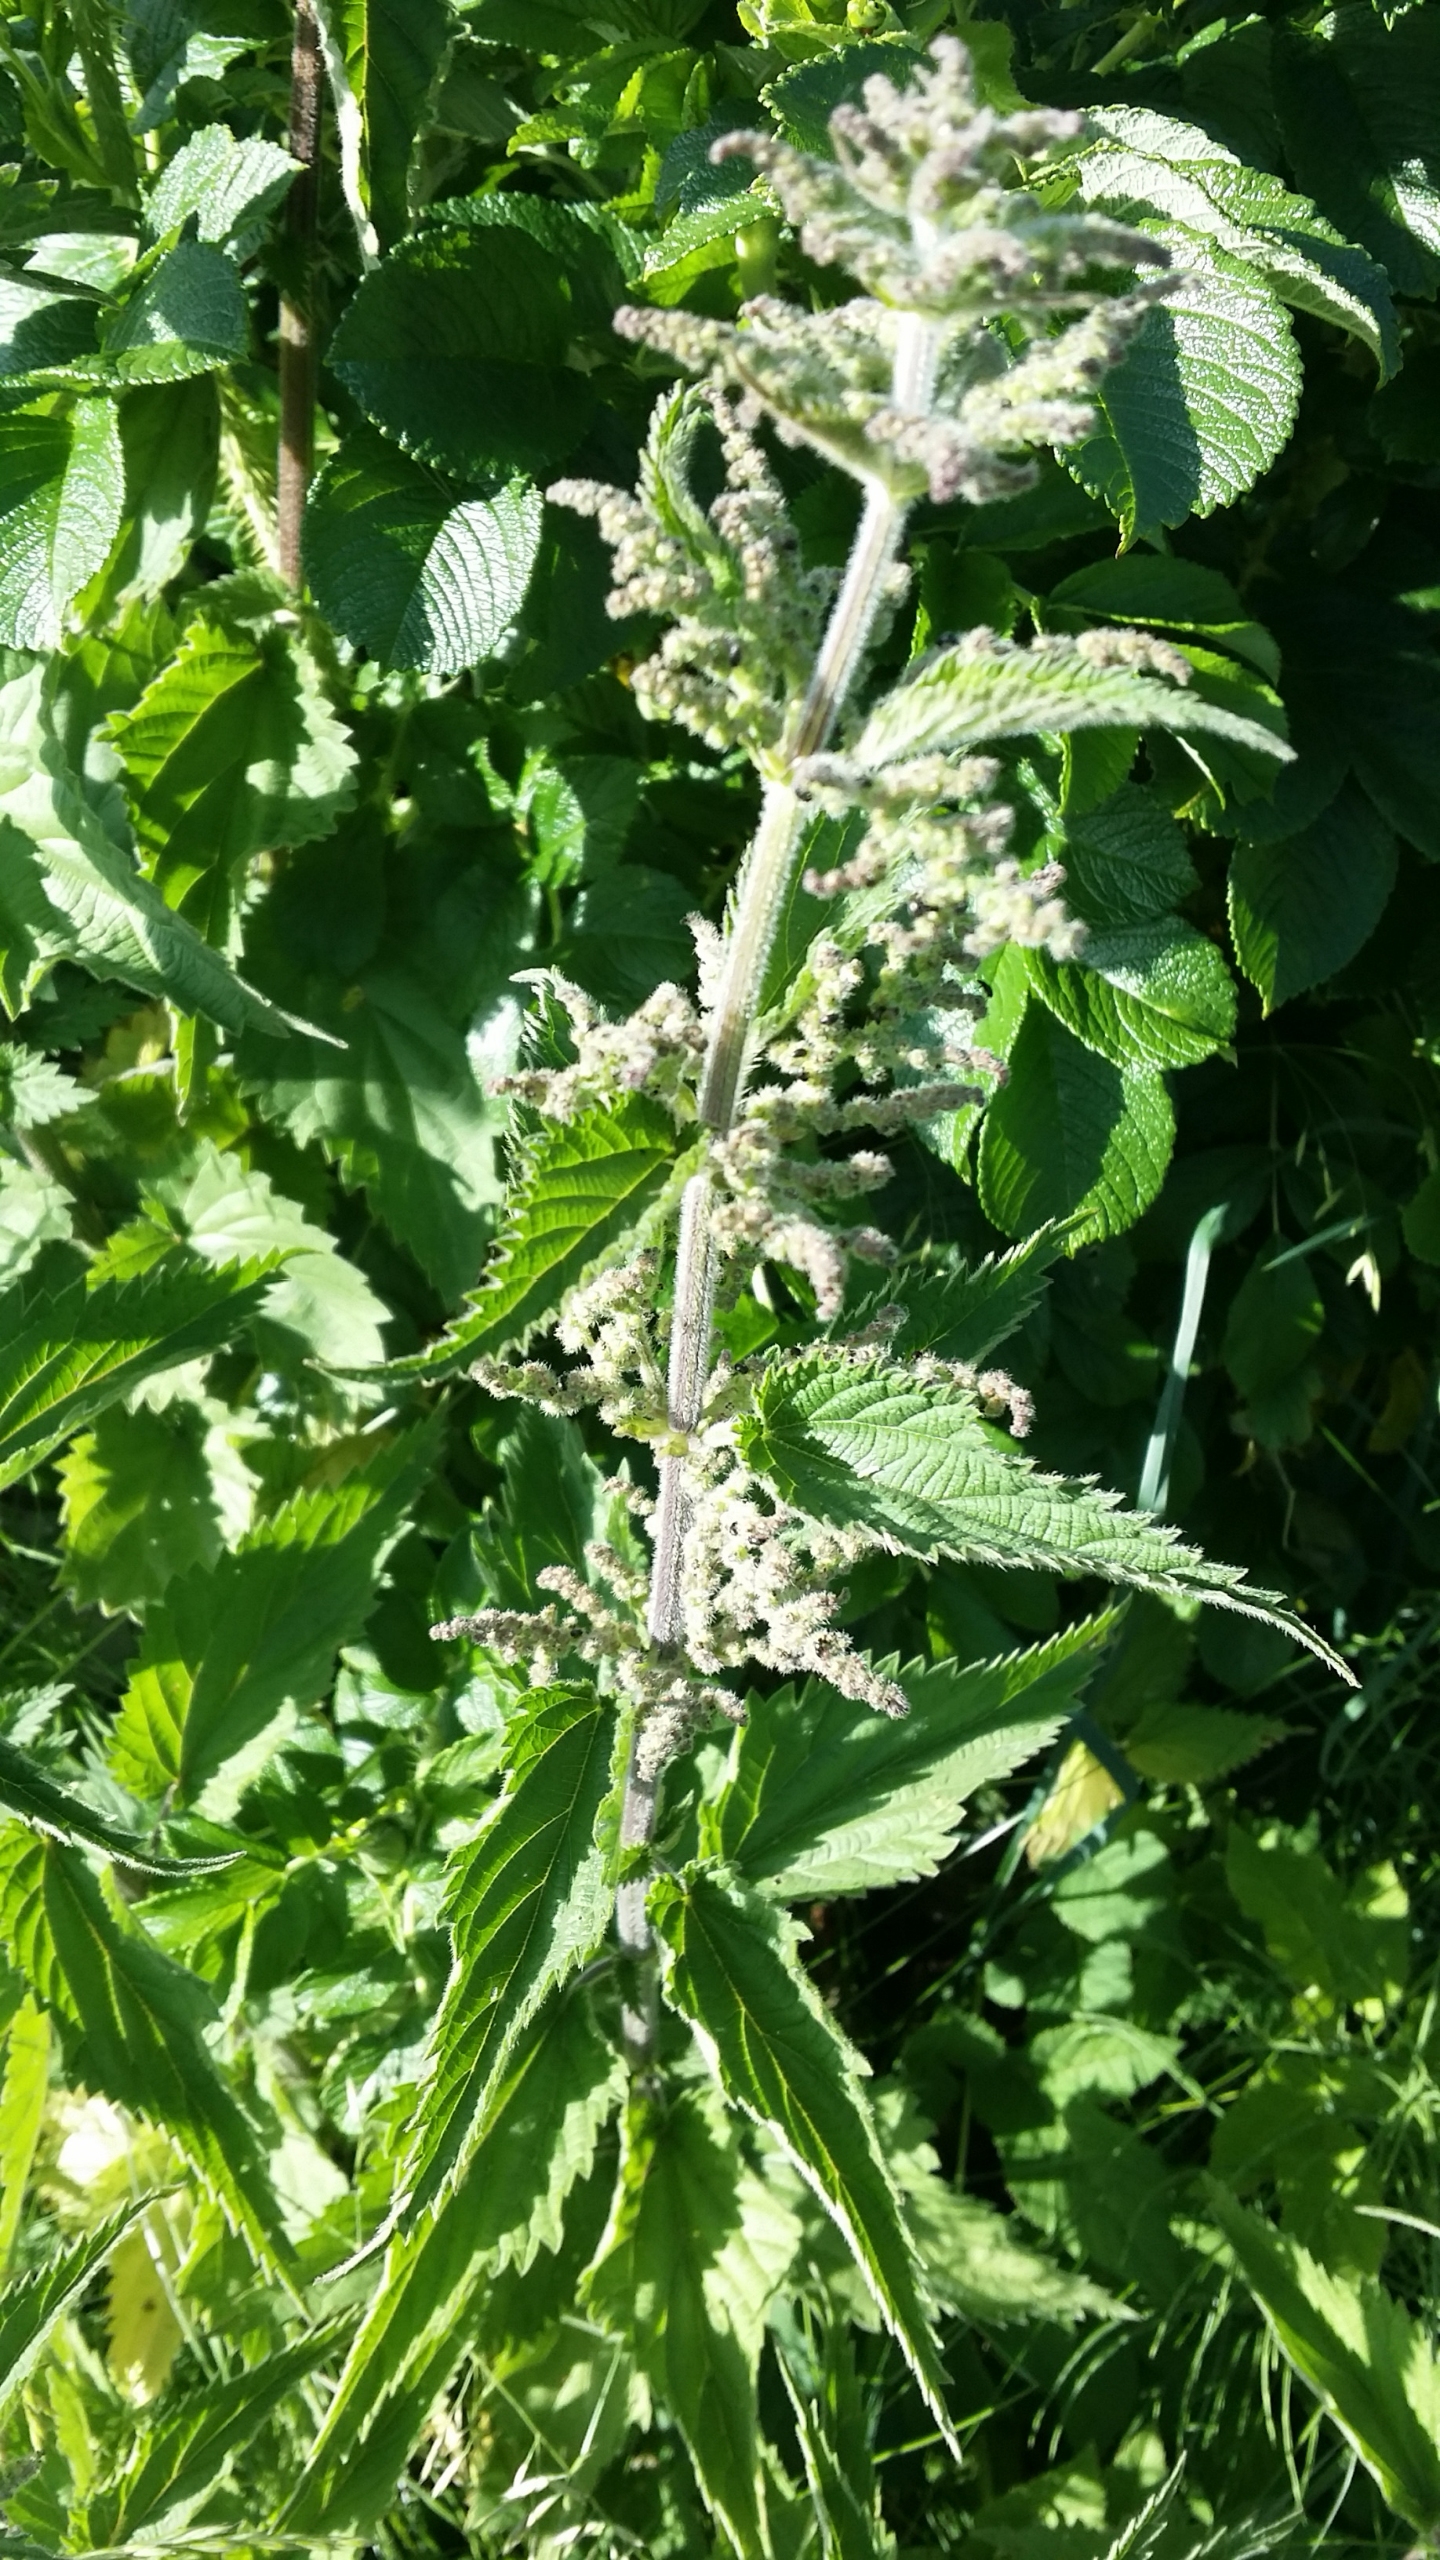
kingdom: Plantae
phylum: Tracheophyta
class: Magnoliopsida
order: Rosales
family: Urticaceae
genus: Urtica
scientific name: Urtica dioica
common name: Stor nælde
